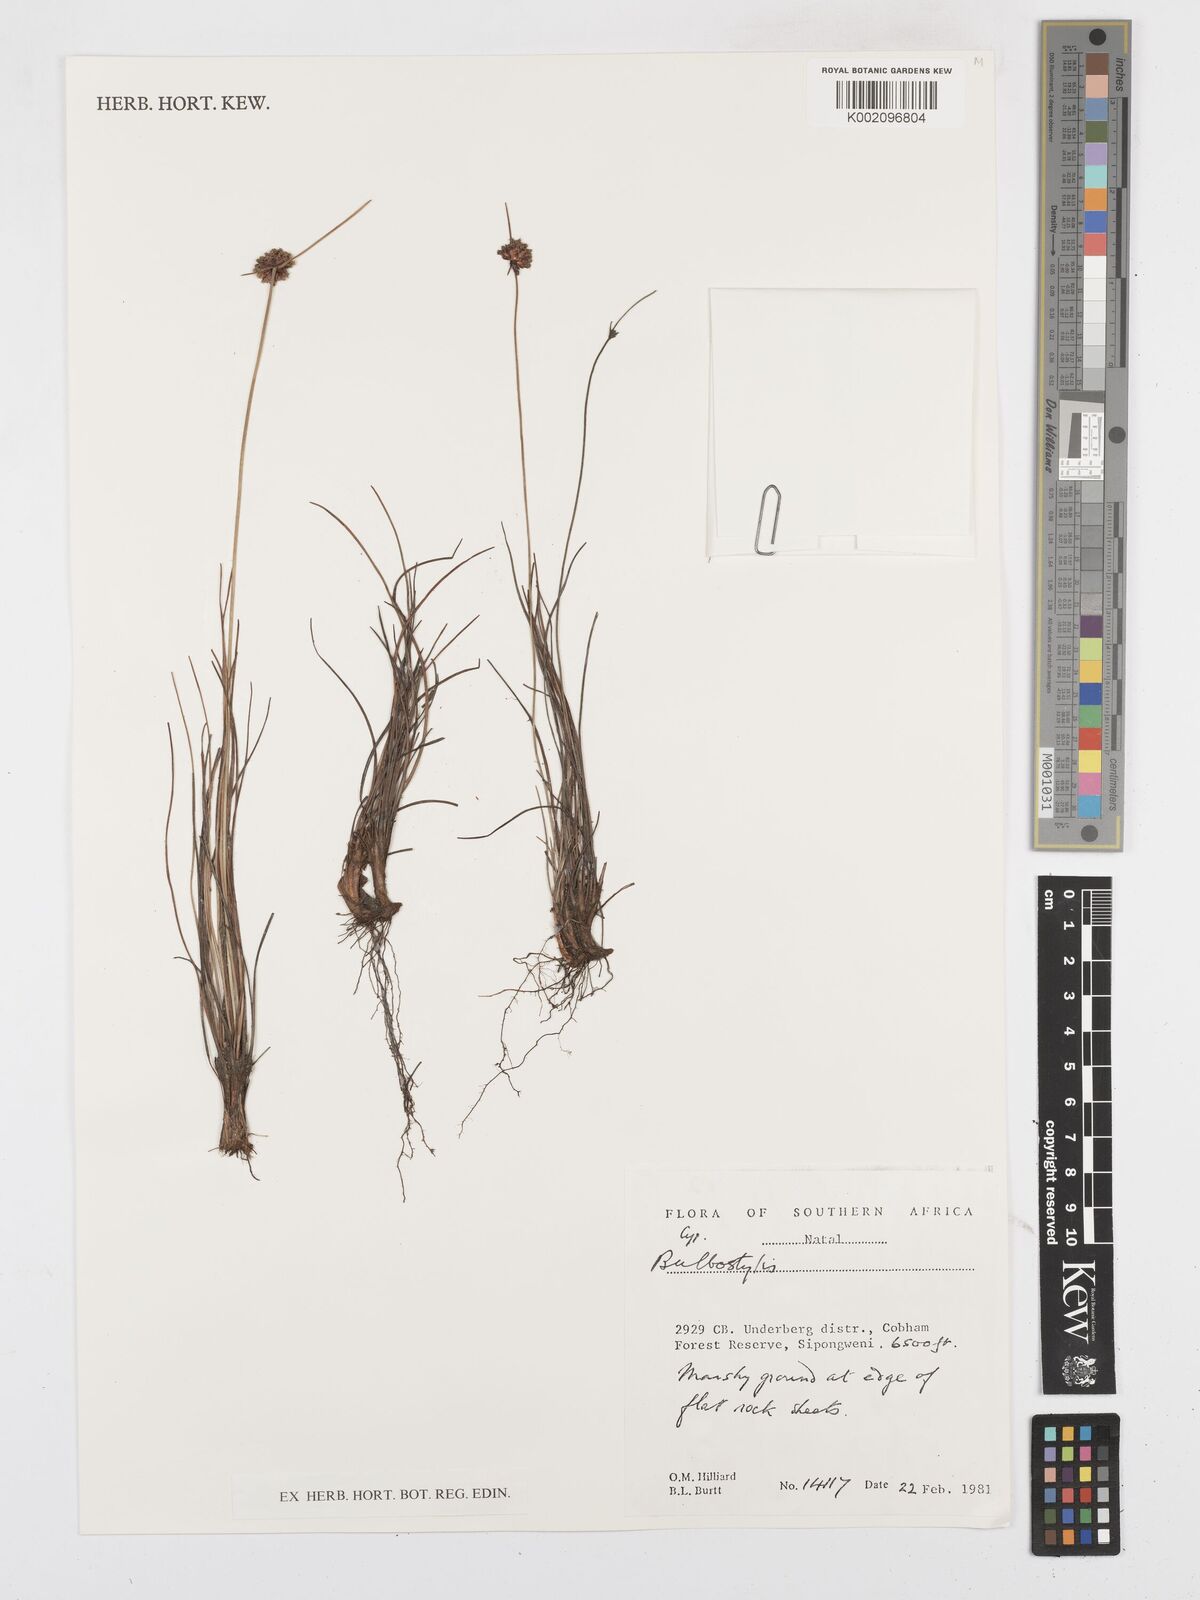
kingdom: Plantae
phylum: Tracheophyta
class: Liliopsida
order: Poales
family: Cyperaceae
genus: Bulbostylis
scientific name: Bulbostylis
